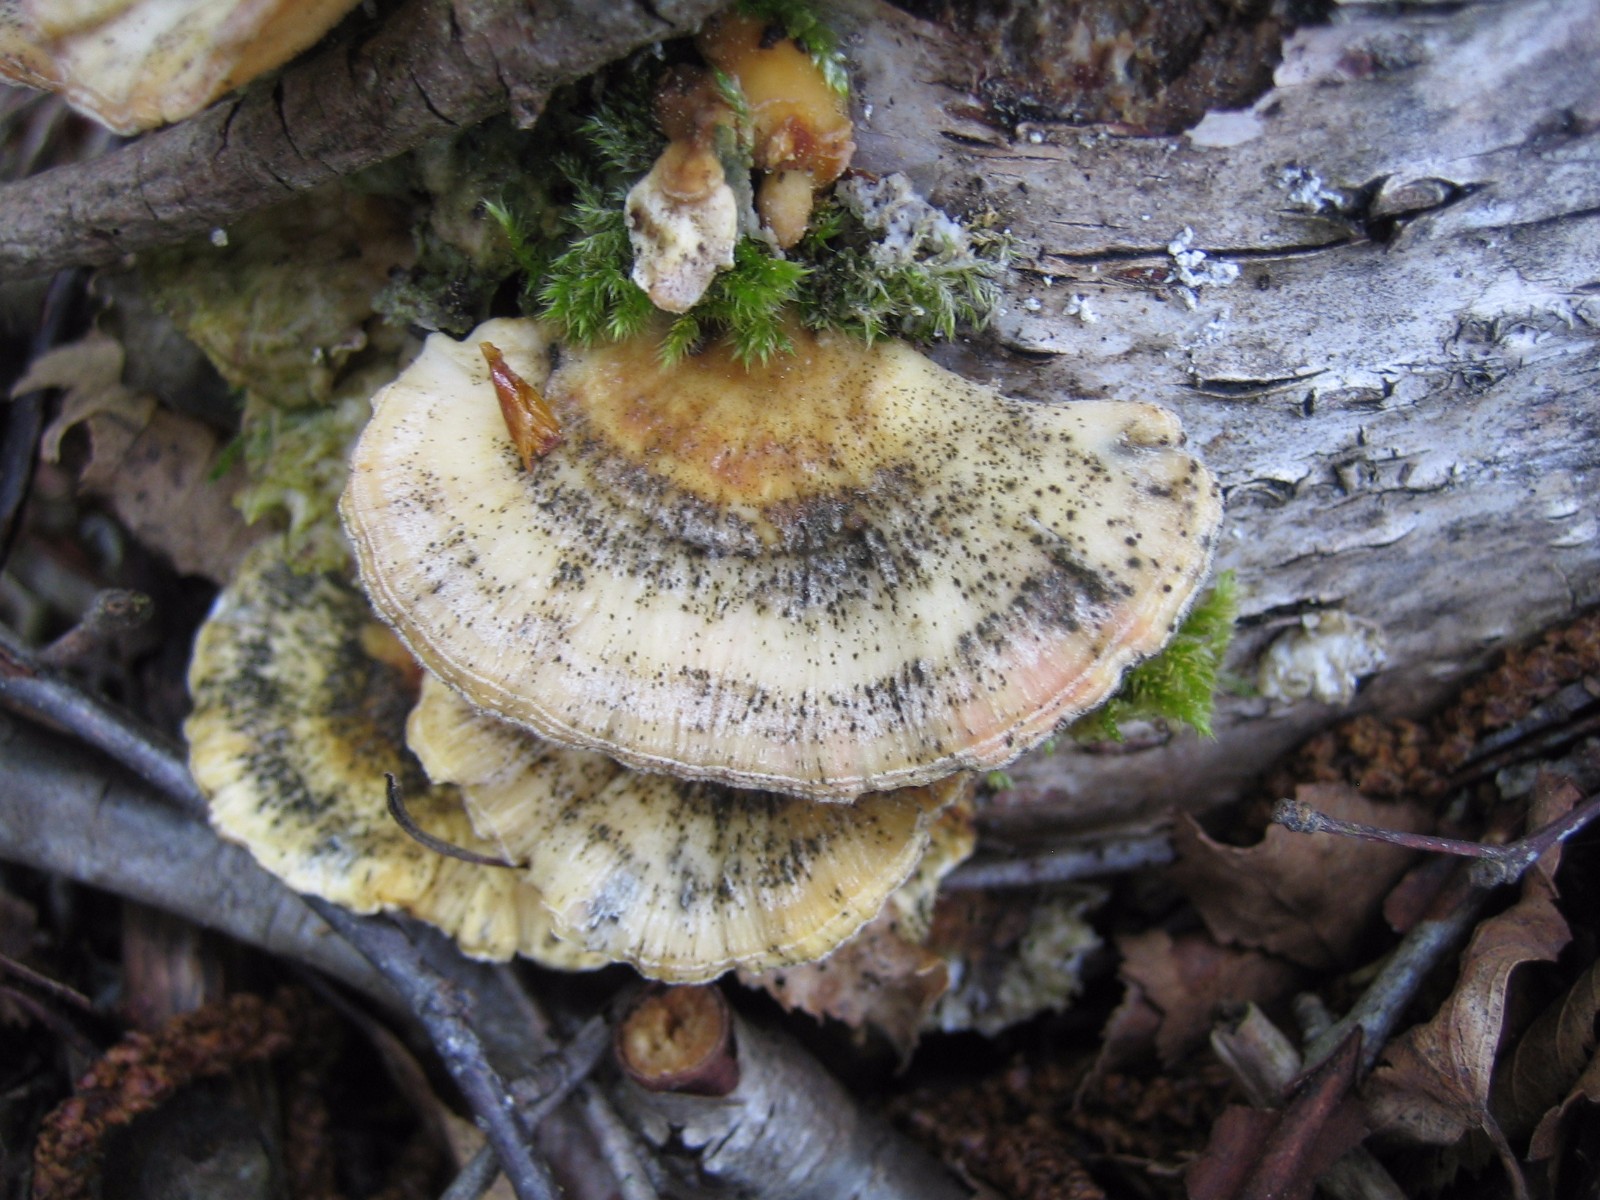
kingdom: Fungi
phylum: Basidiomycota
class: Agaricomycetes
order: Polyporales
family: Polyporaceae
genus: Trametes
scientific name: Trametes
